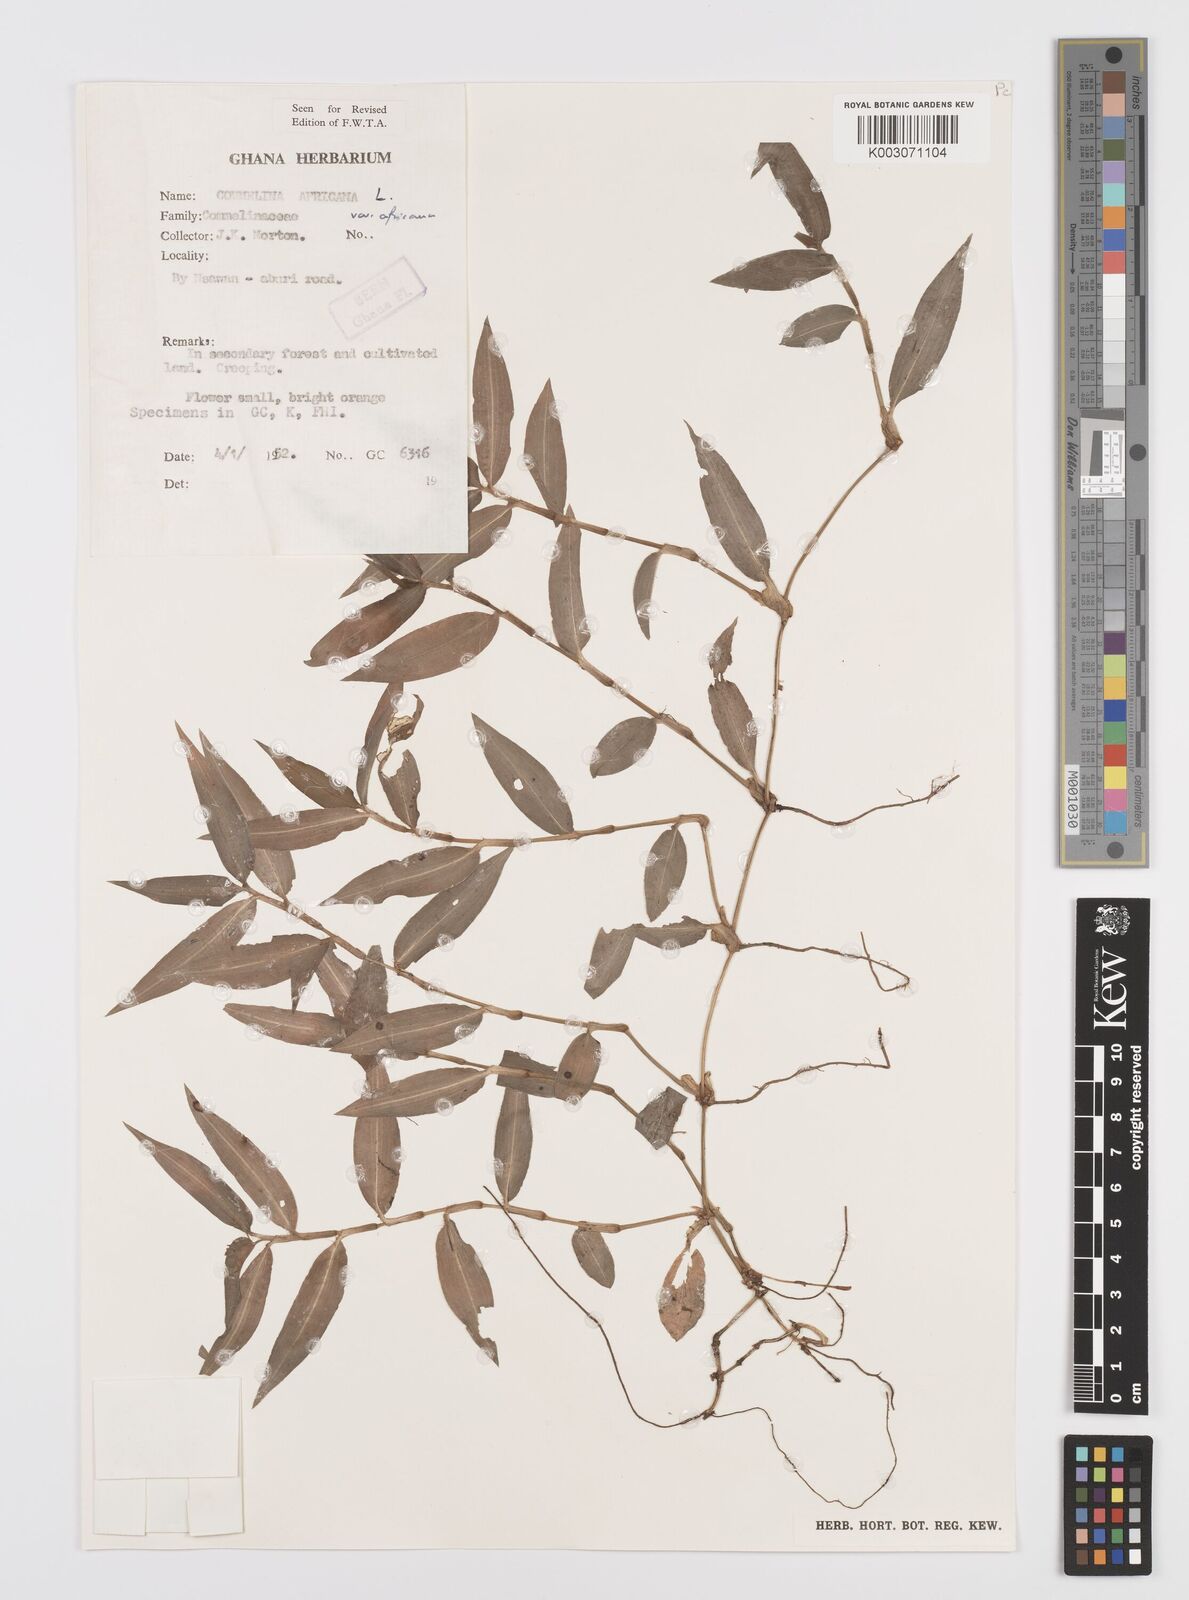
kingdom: Plantae
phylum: Tracheophyta
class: Liliopsida
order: Commelinales
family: Commelinaceae
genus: Commelina
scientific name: Commelina africana
